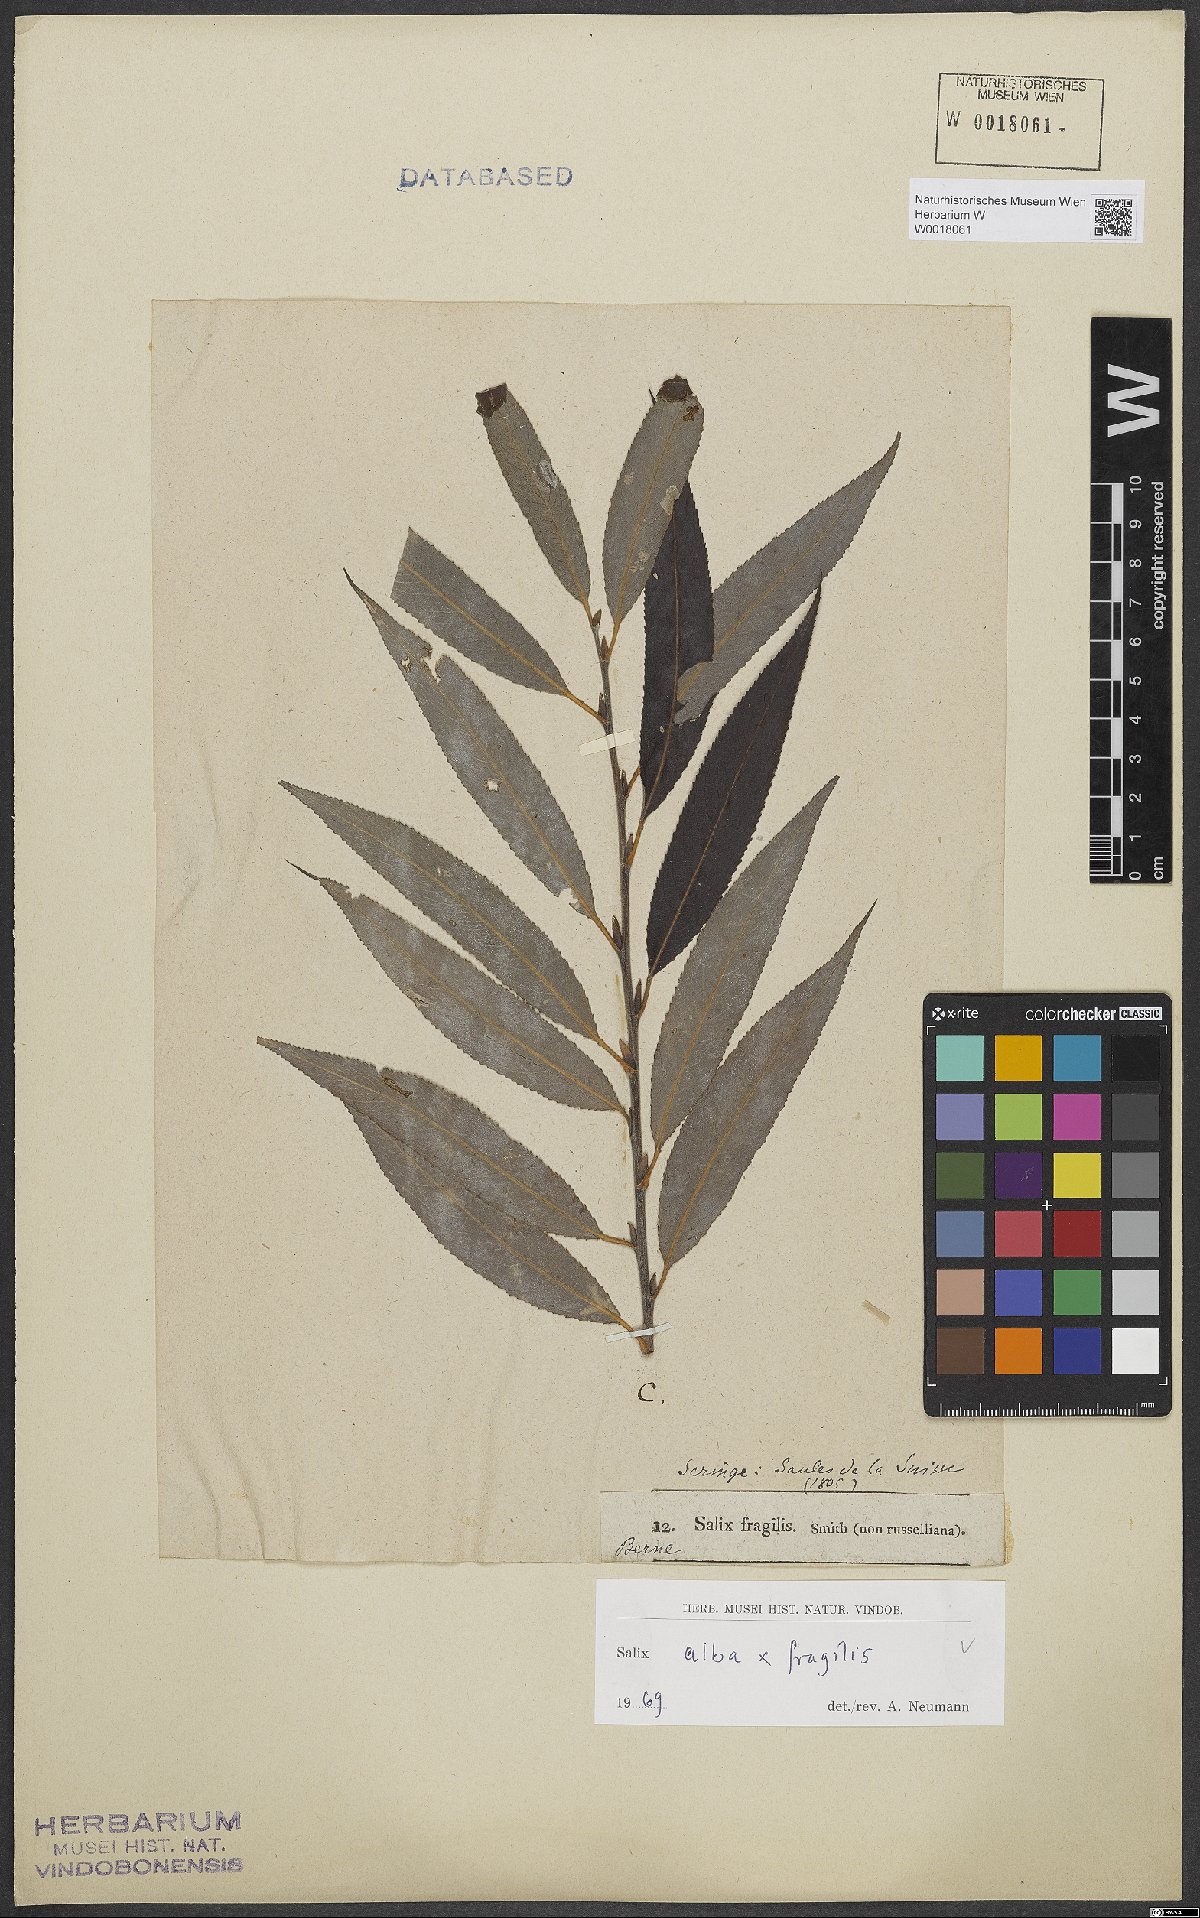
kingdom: Plantae
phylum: Tracheophyta
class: Magnoliopsida
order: Malpighiales
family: Salicaceae
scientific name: Salicaceae
